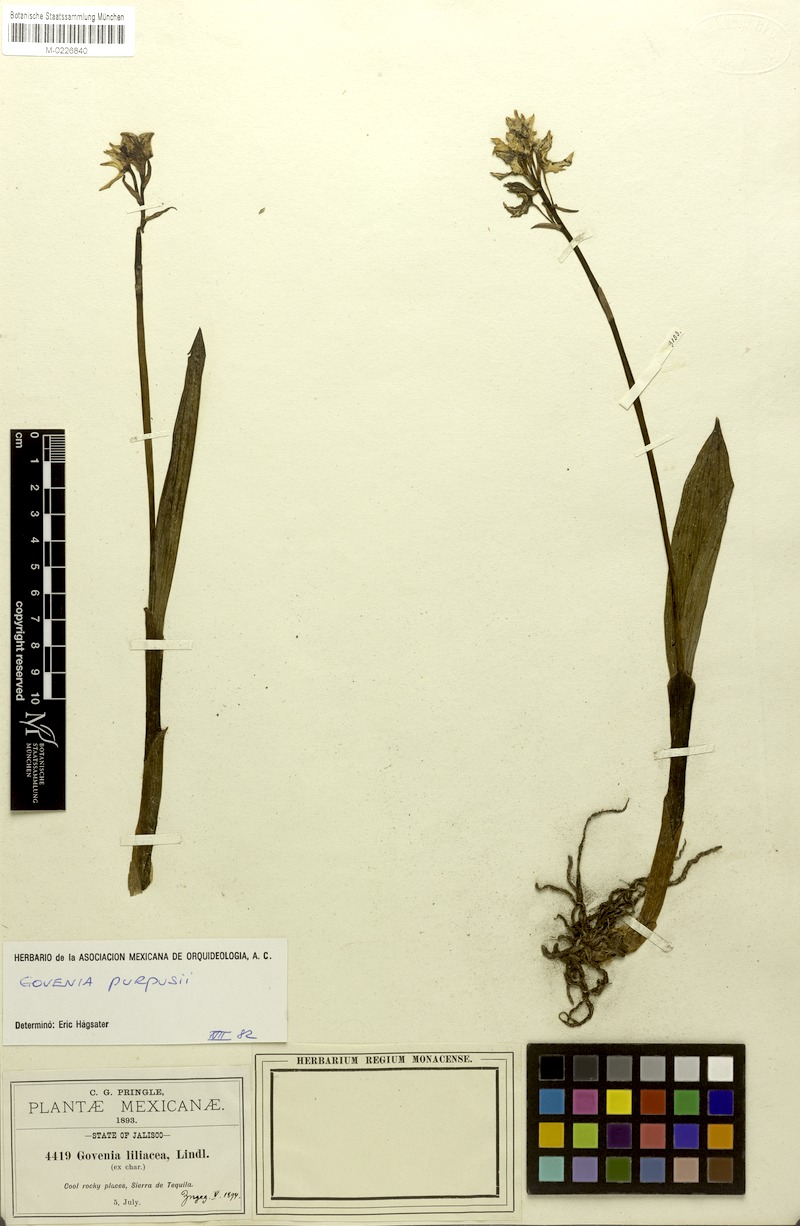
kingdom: Plantae
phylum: Tracheophyta
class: Liliopsida
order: Asparagales
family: Orchidaceae
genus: Govenia
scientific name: Govenia liliacea
